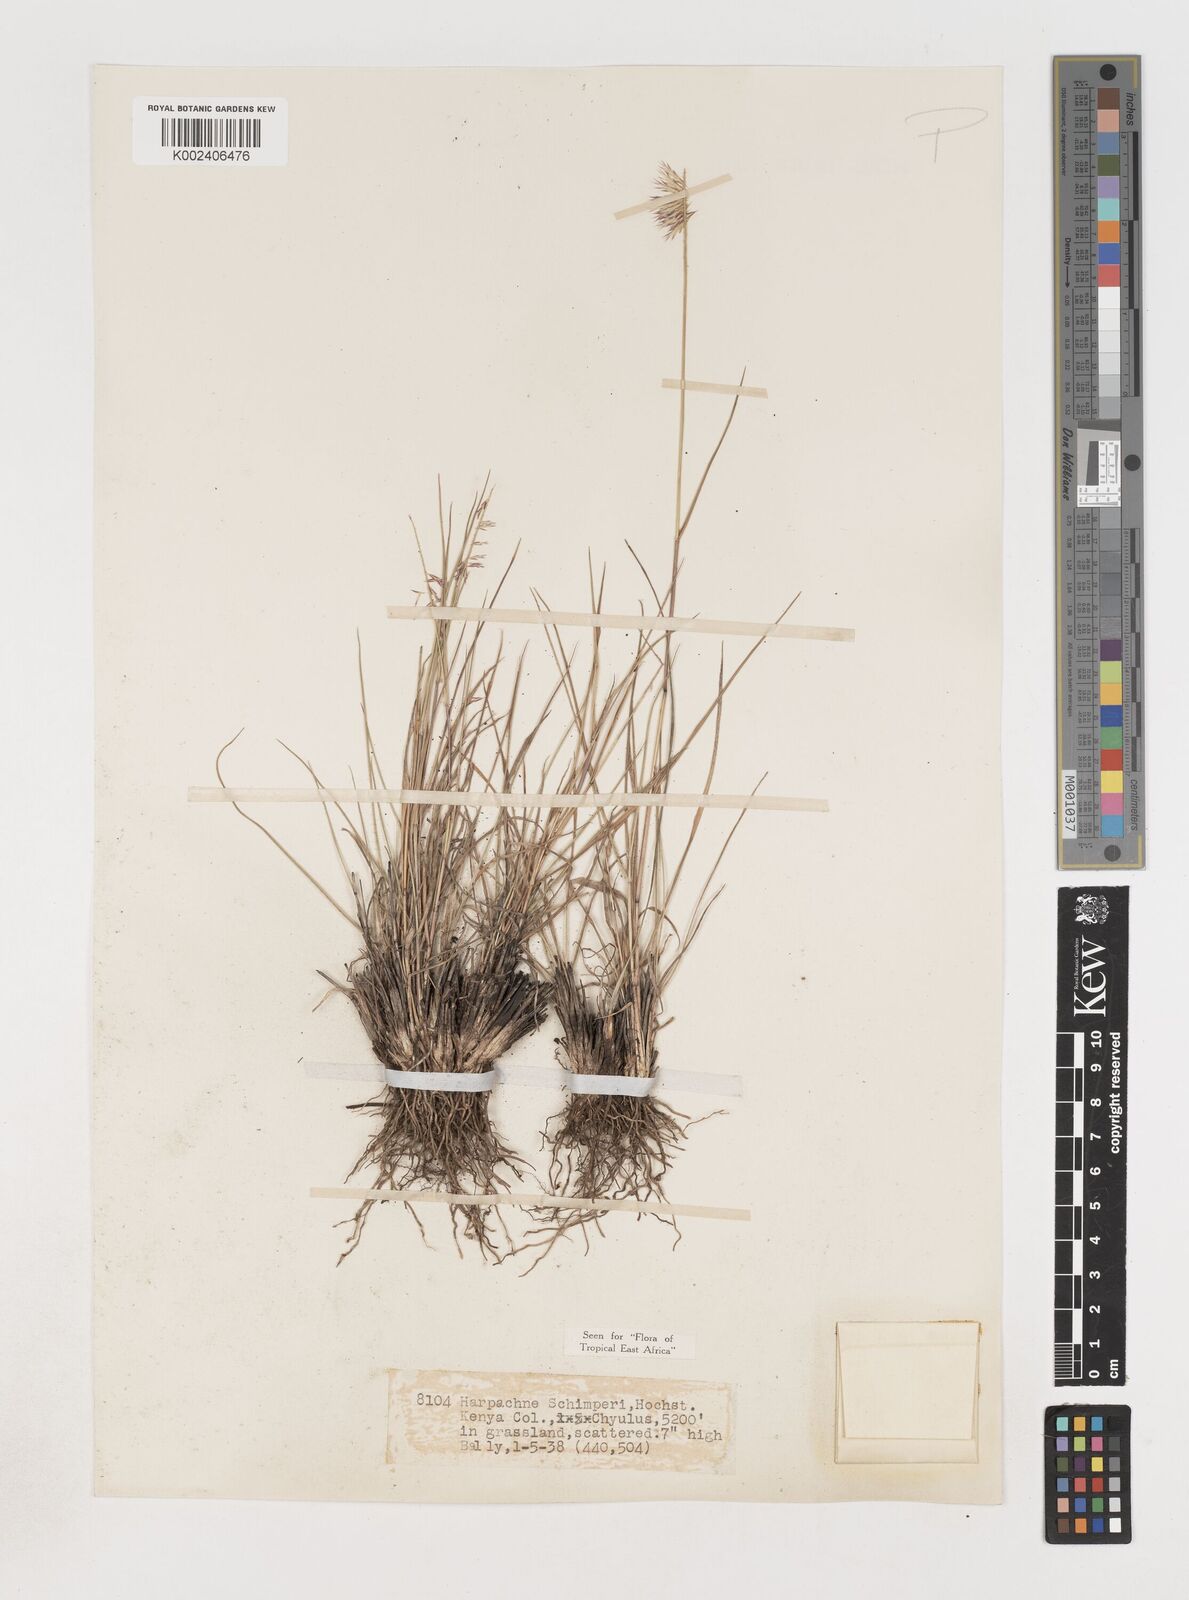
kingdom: Plantae
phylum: Tracheophyta
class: Liliopsida
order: Poales
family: Poaceae
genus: Harpachne
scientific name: Harpachne schimperi
